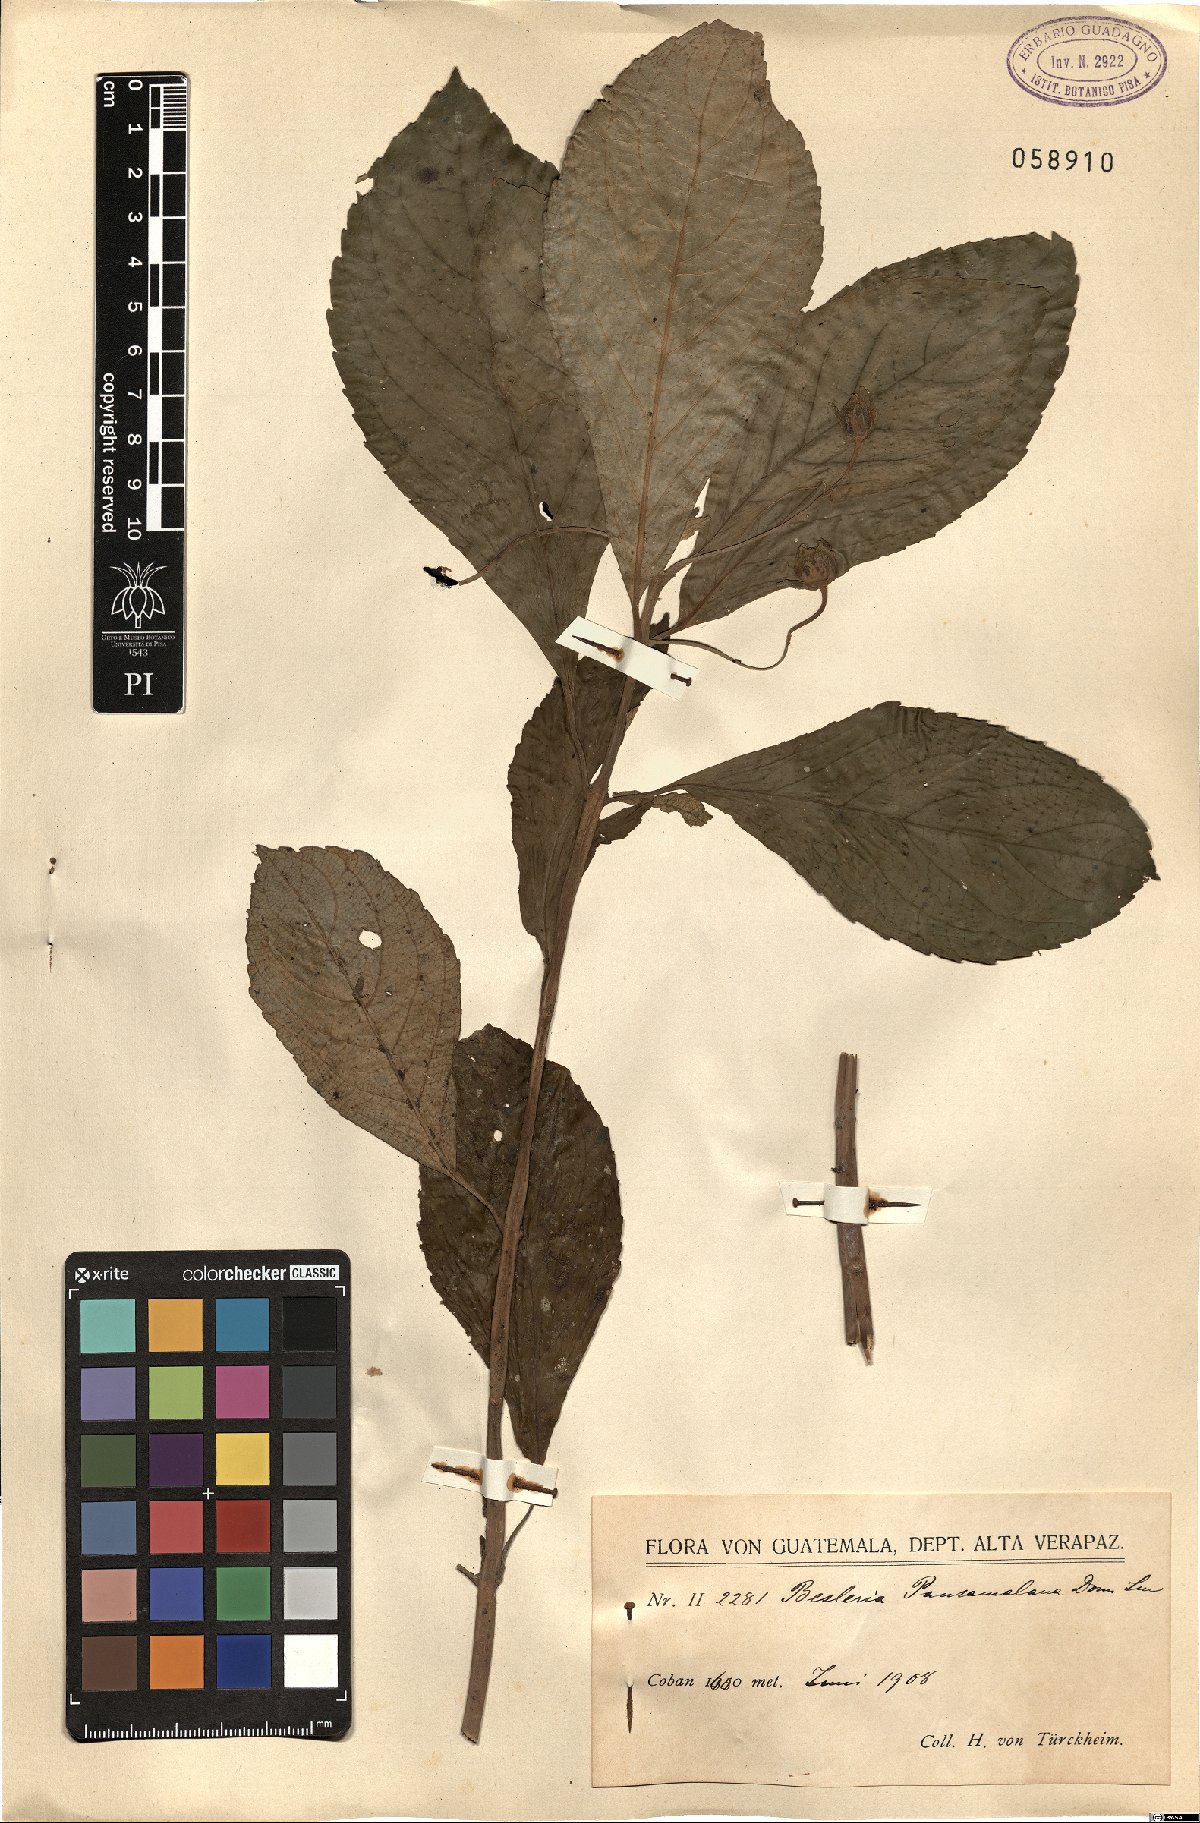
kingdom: Plantae
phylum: Tracheophyta
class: Magnoliopsida
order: Lamiales
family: Gesneriaceae
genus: Gasteranthus
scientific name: Gasteranthus pansamalanus
